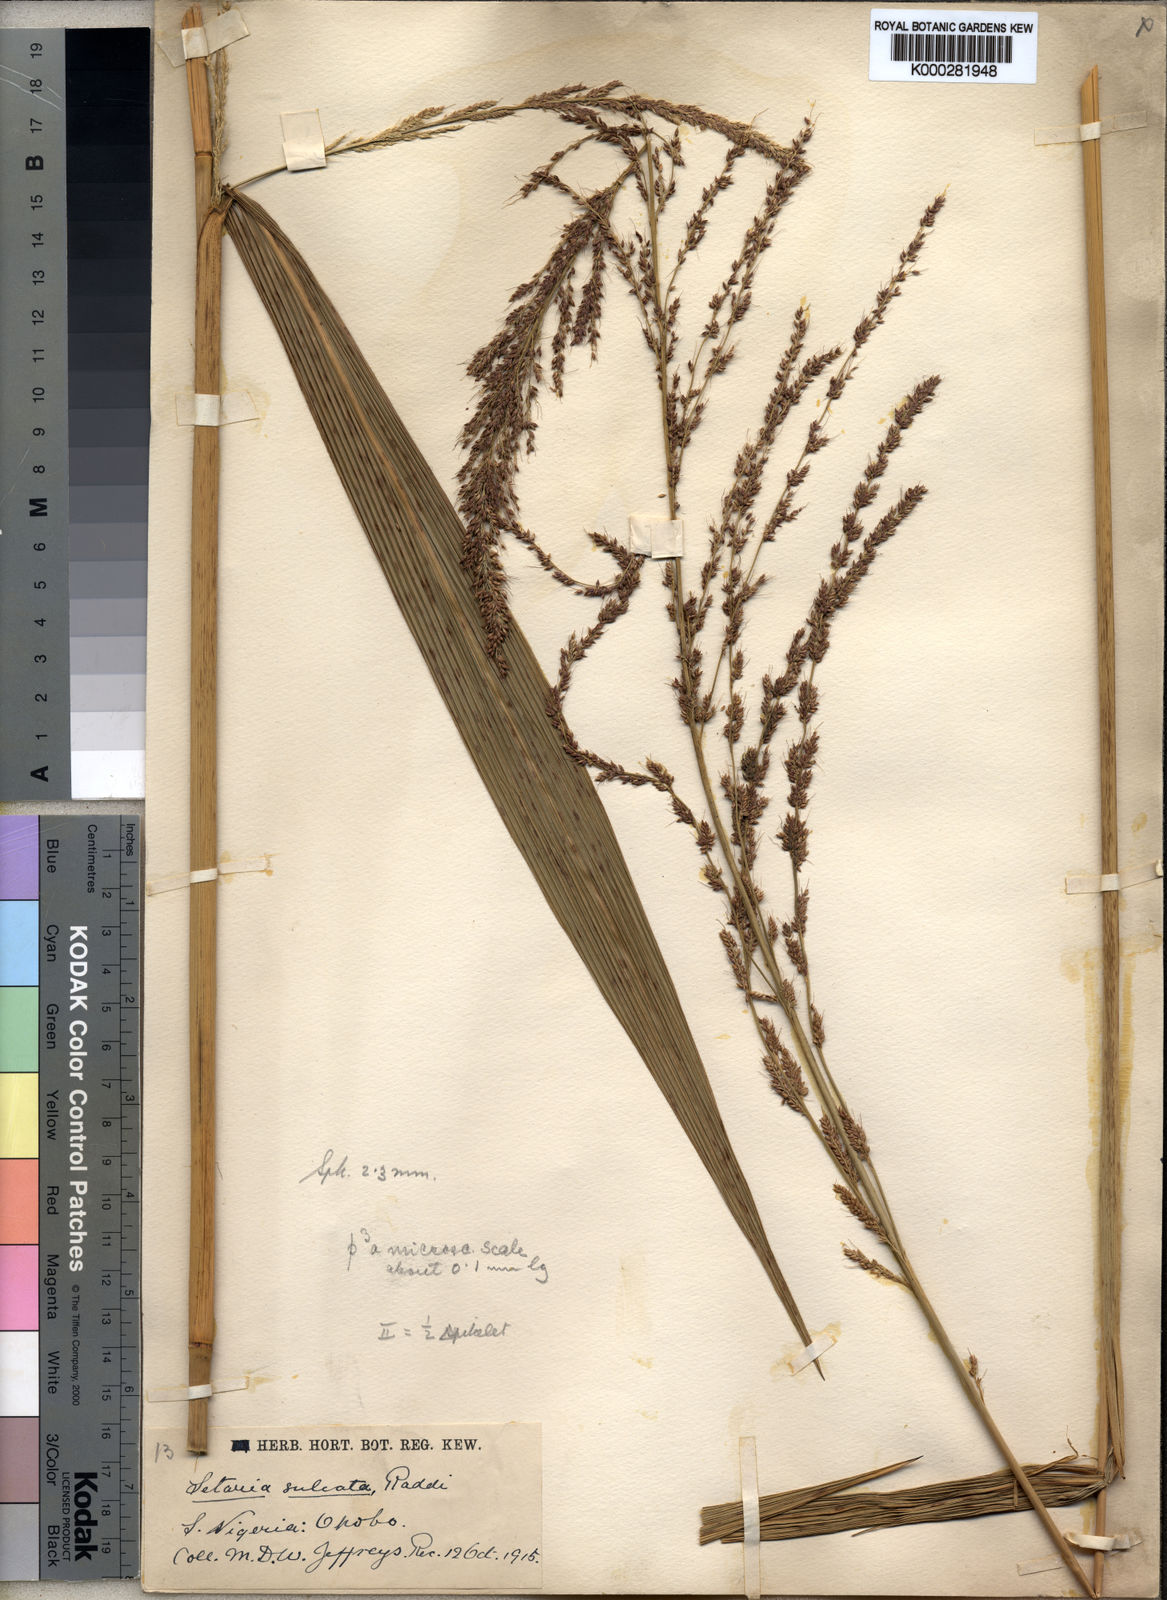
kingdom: Plantae
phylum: Tracheophyta
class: Liliopsida
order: Poales
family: Poaceae
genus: Setaria
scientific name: Setaria megaphylla
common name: Bigleaf bristlegrass
